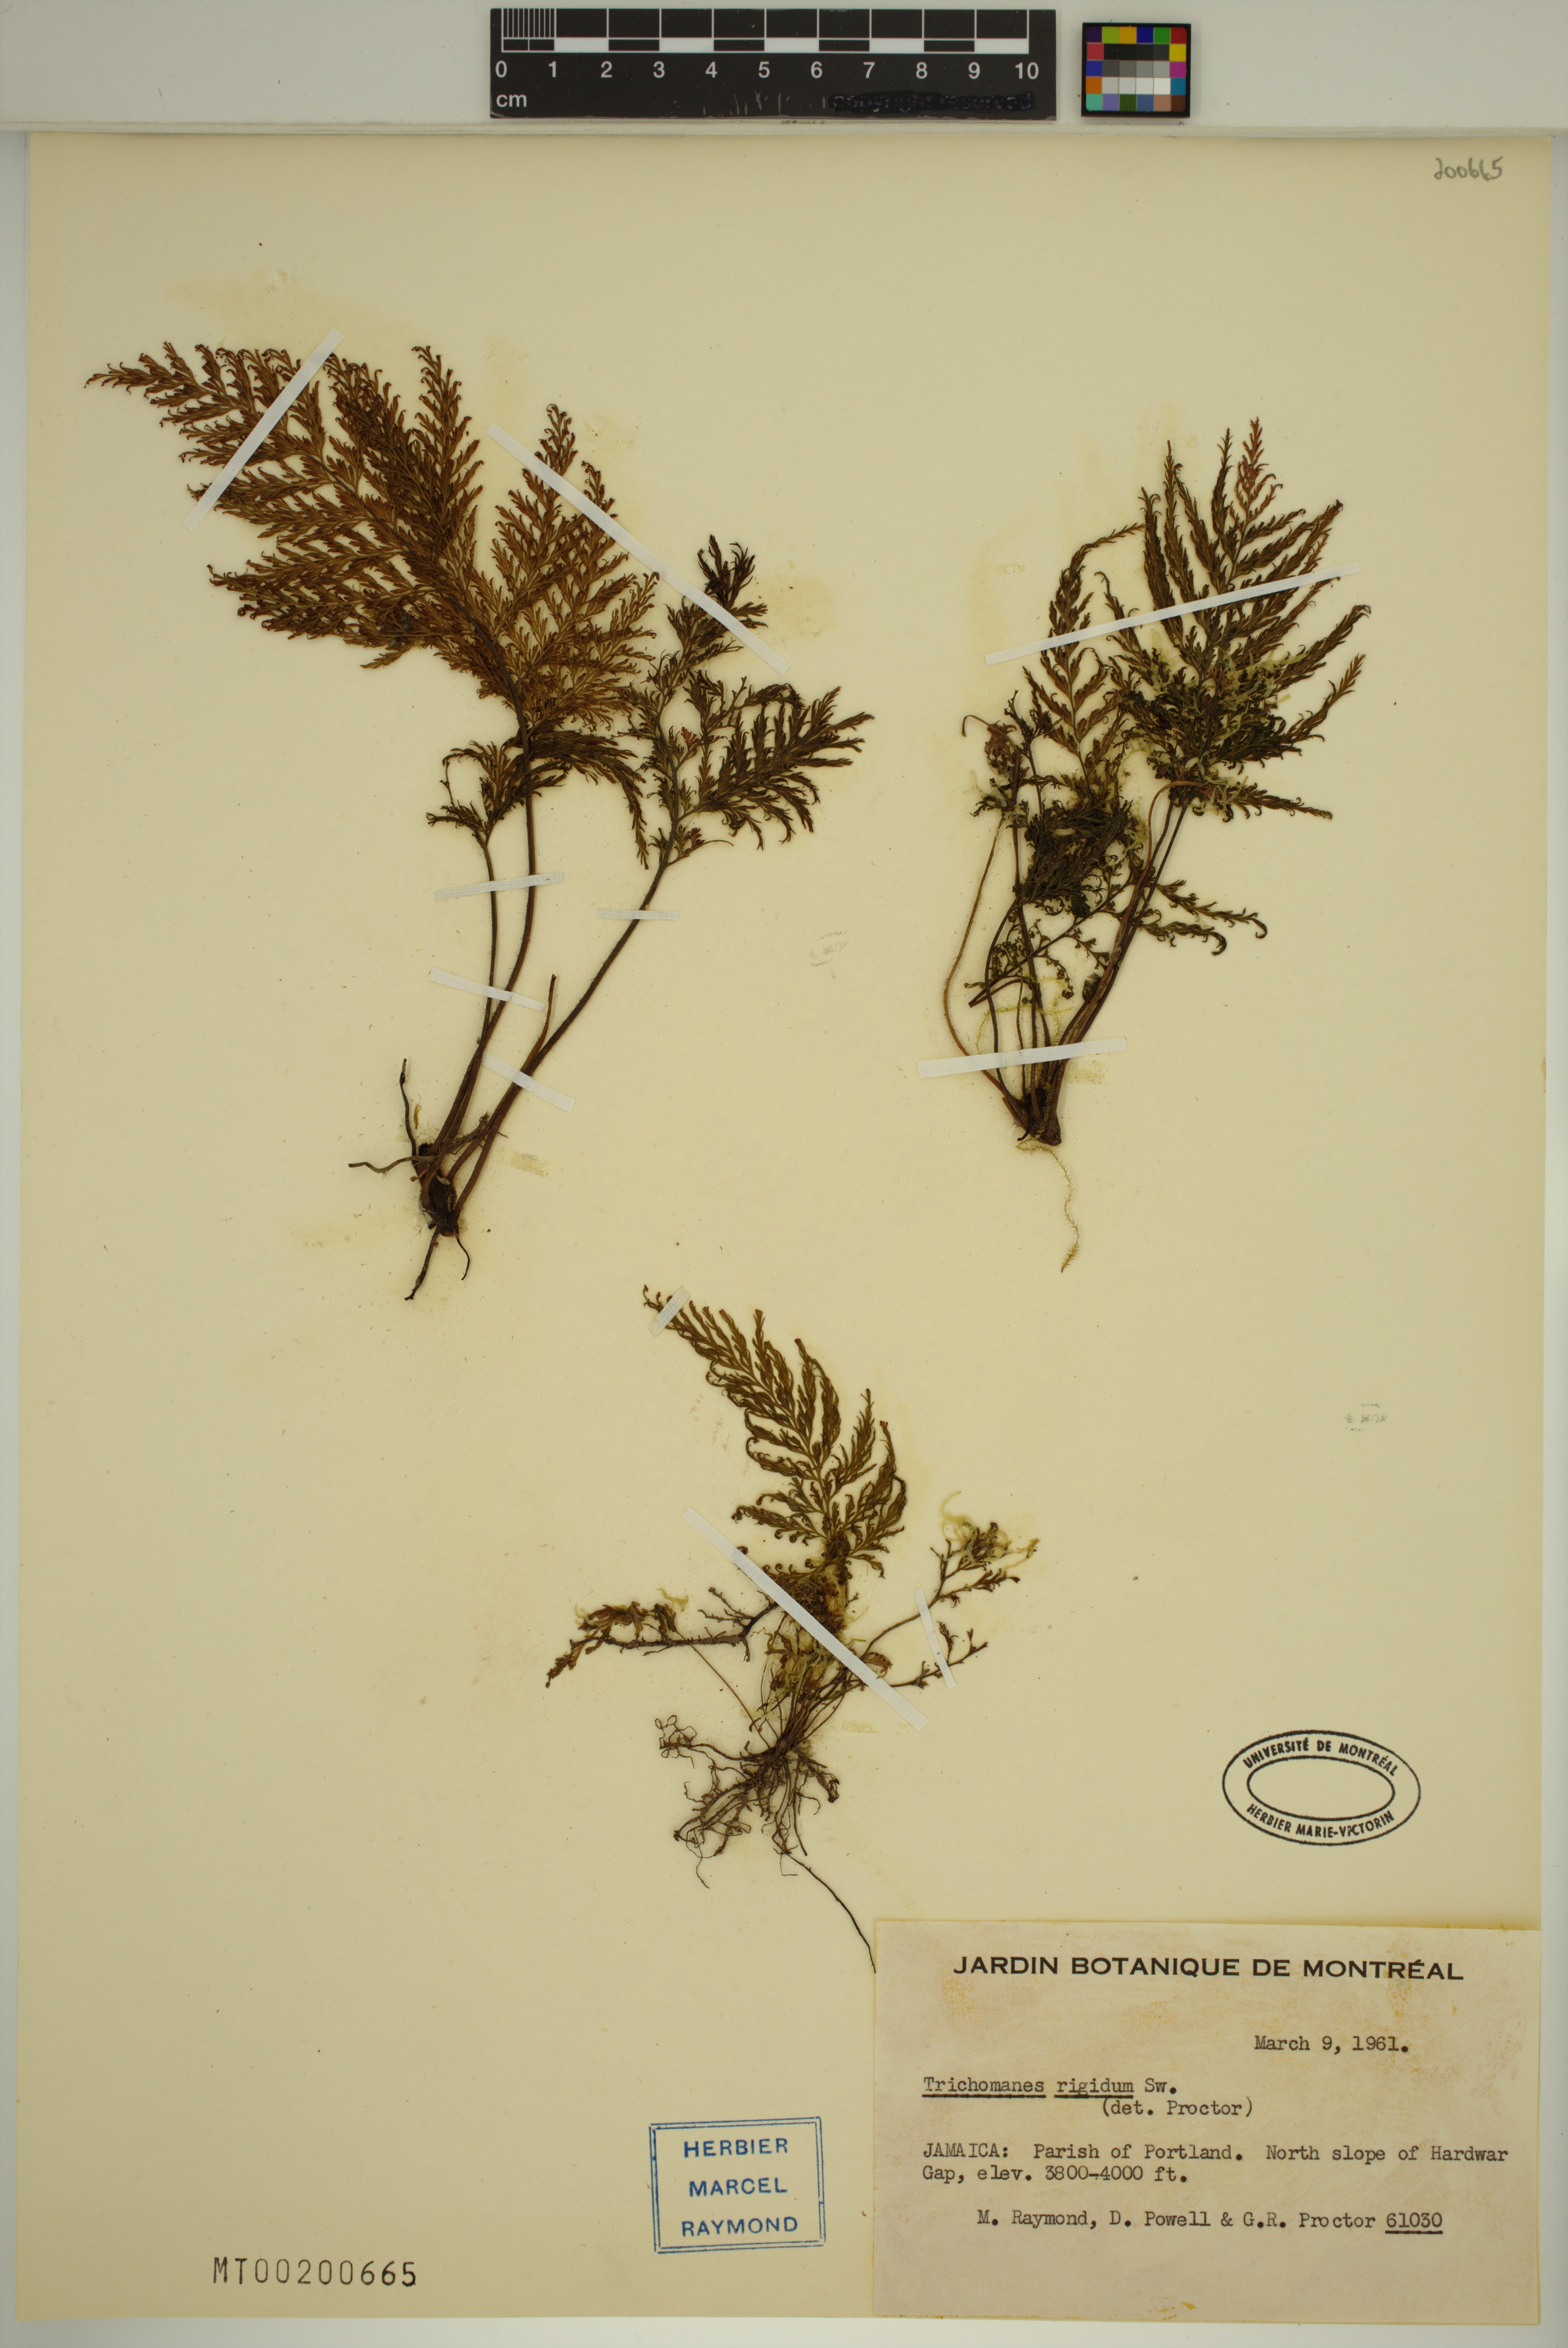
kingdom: Plantae
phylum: Tracheophyta
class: Polypodiopsida
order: Hymenophyllales
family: Hymenophyllaceae
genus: Abrodictyum
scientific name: Abrodictyum rigidum
